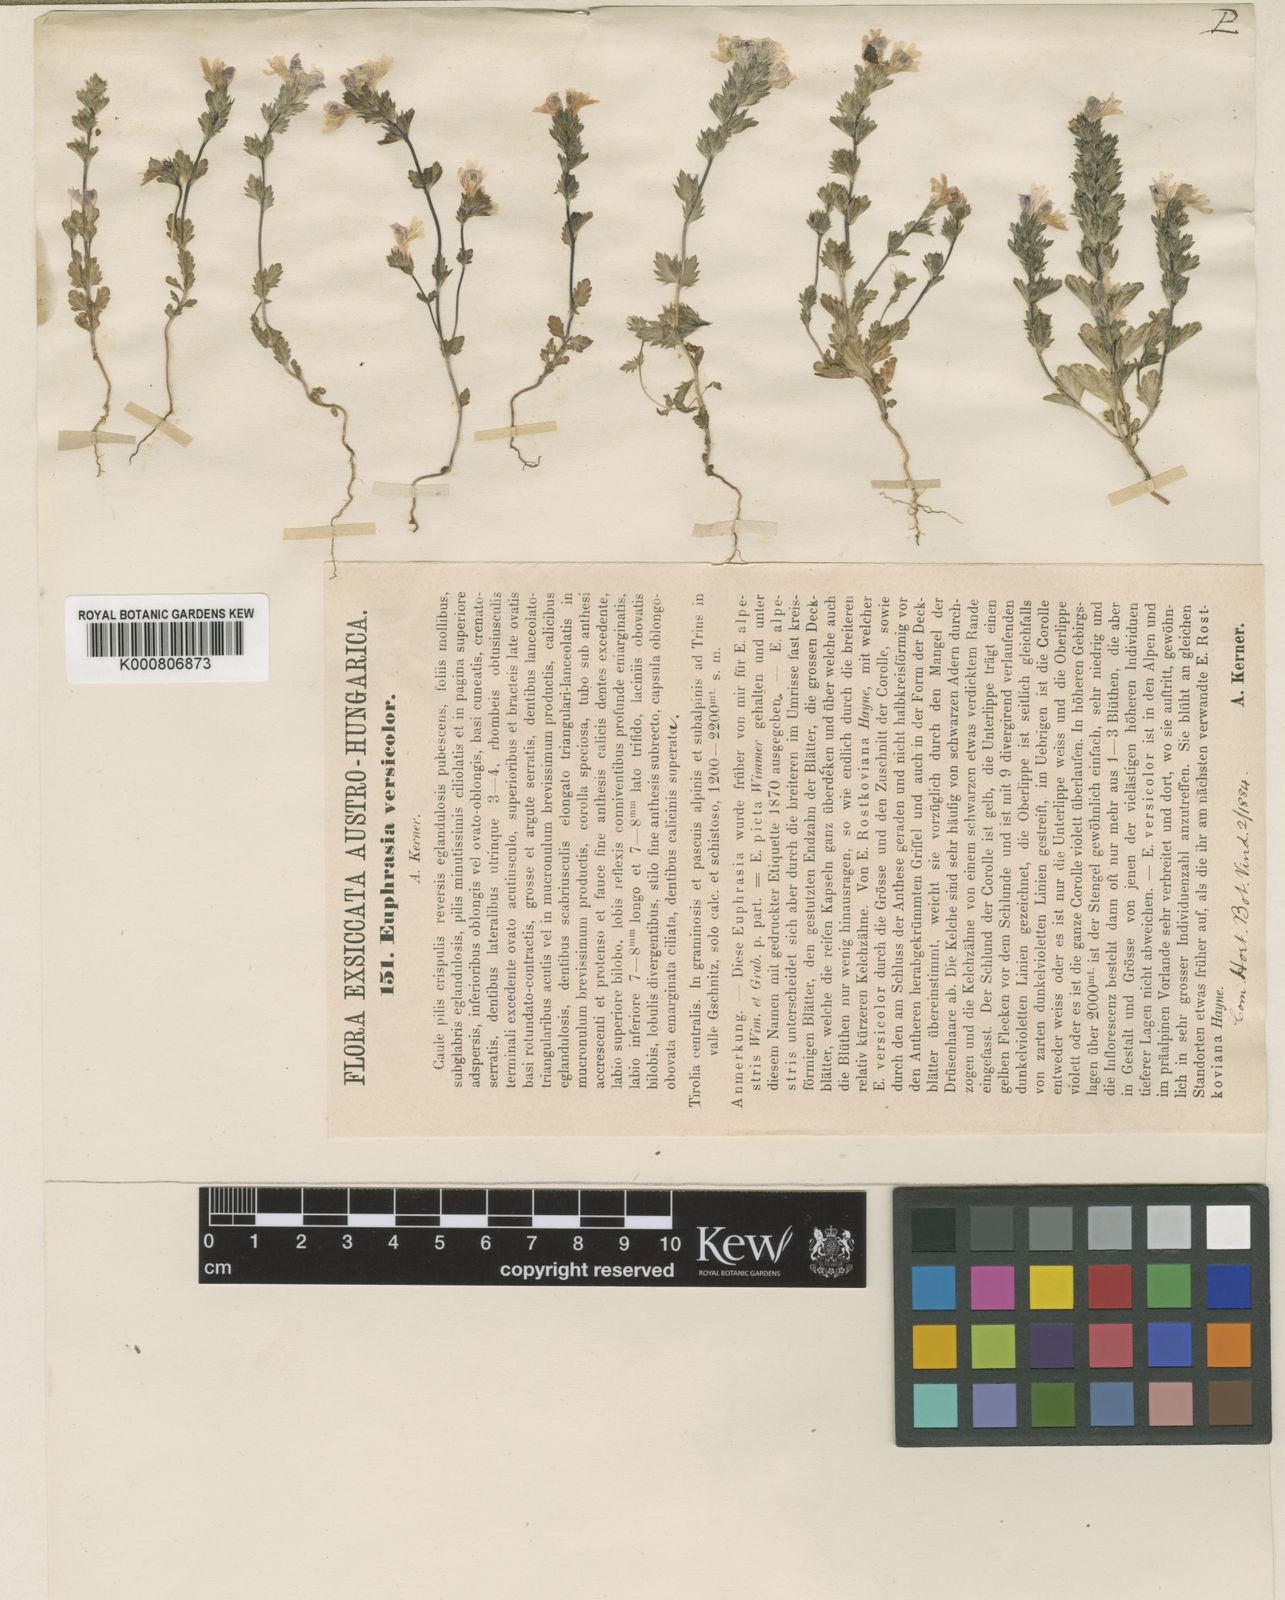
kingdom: Plantae
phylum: Tracheophyta
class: Magnoliopsida
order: Lamiales
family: Orobanchaceae
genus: Euphrasia
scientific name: Euphrasia picta
